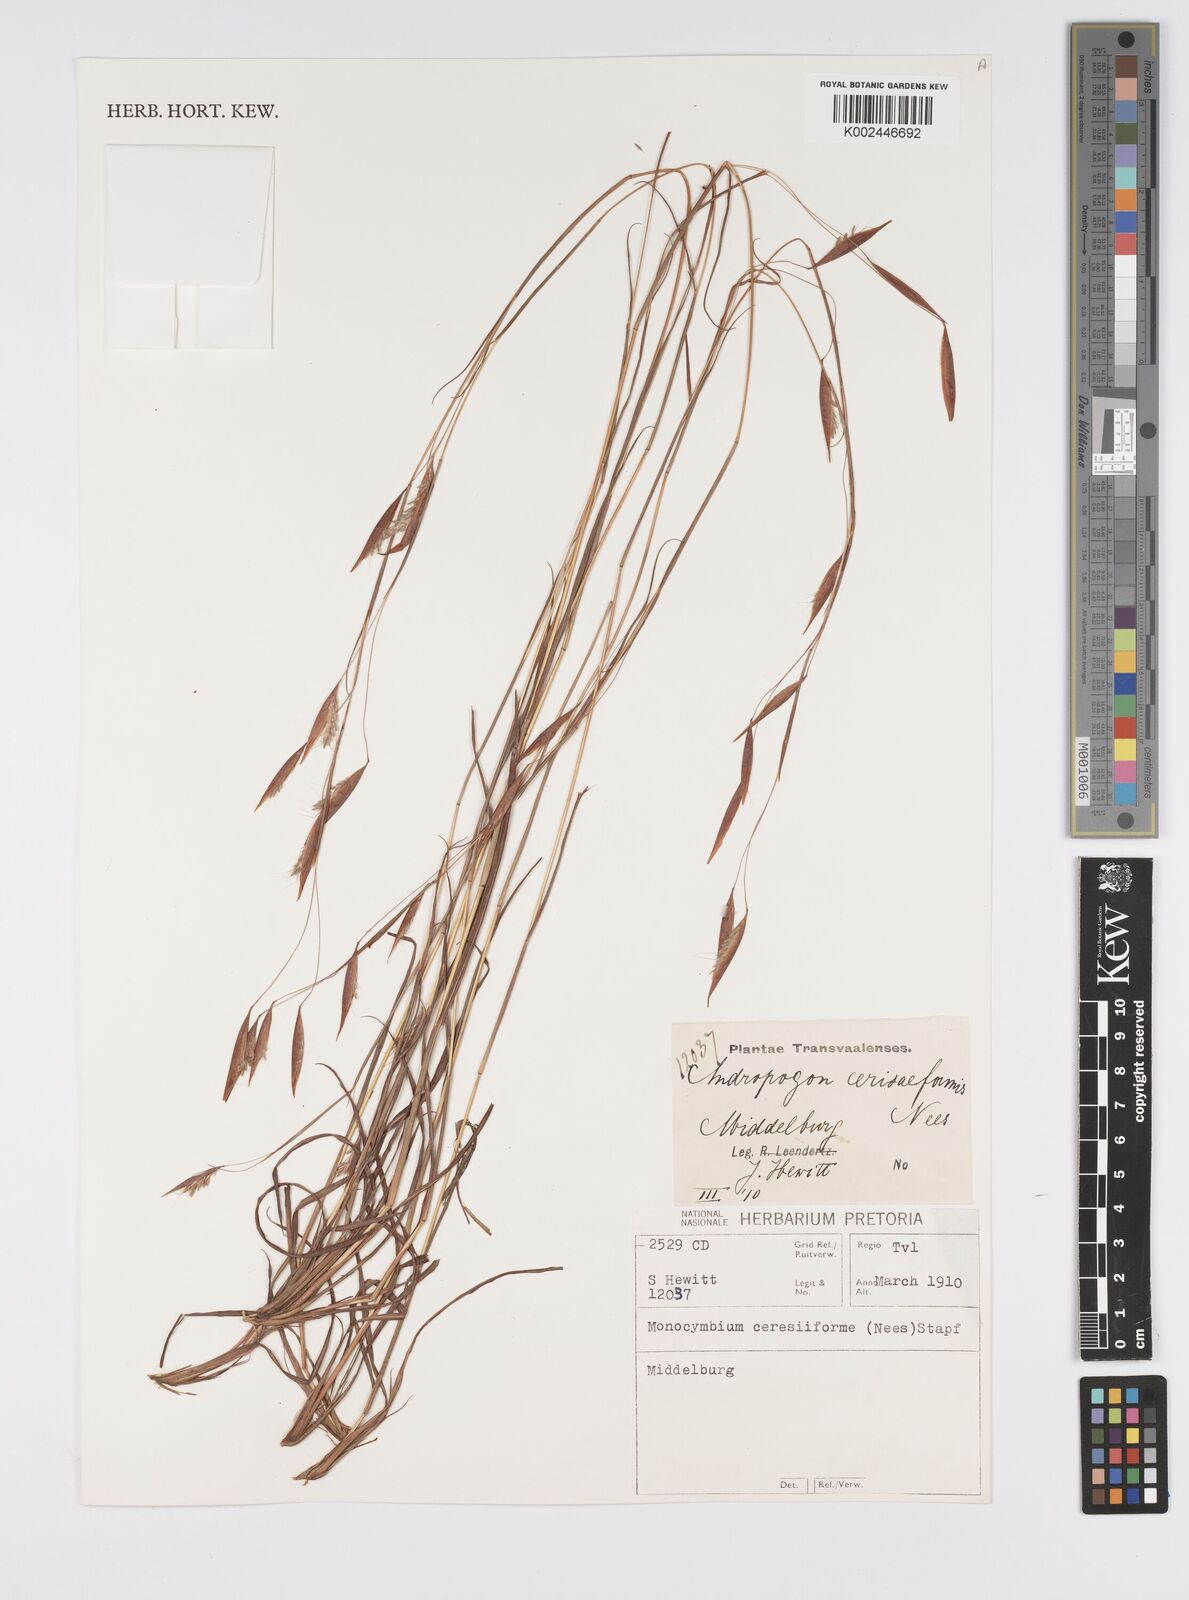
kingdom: Plantae
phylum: Tracheophyta
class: Liliopsida
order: Poales
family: Poaceae
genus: Monocymbium
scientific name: Monocymbium ceresiiforme
